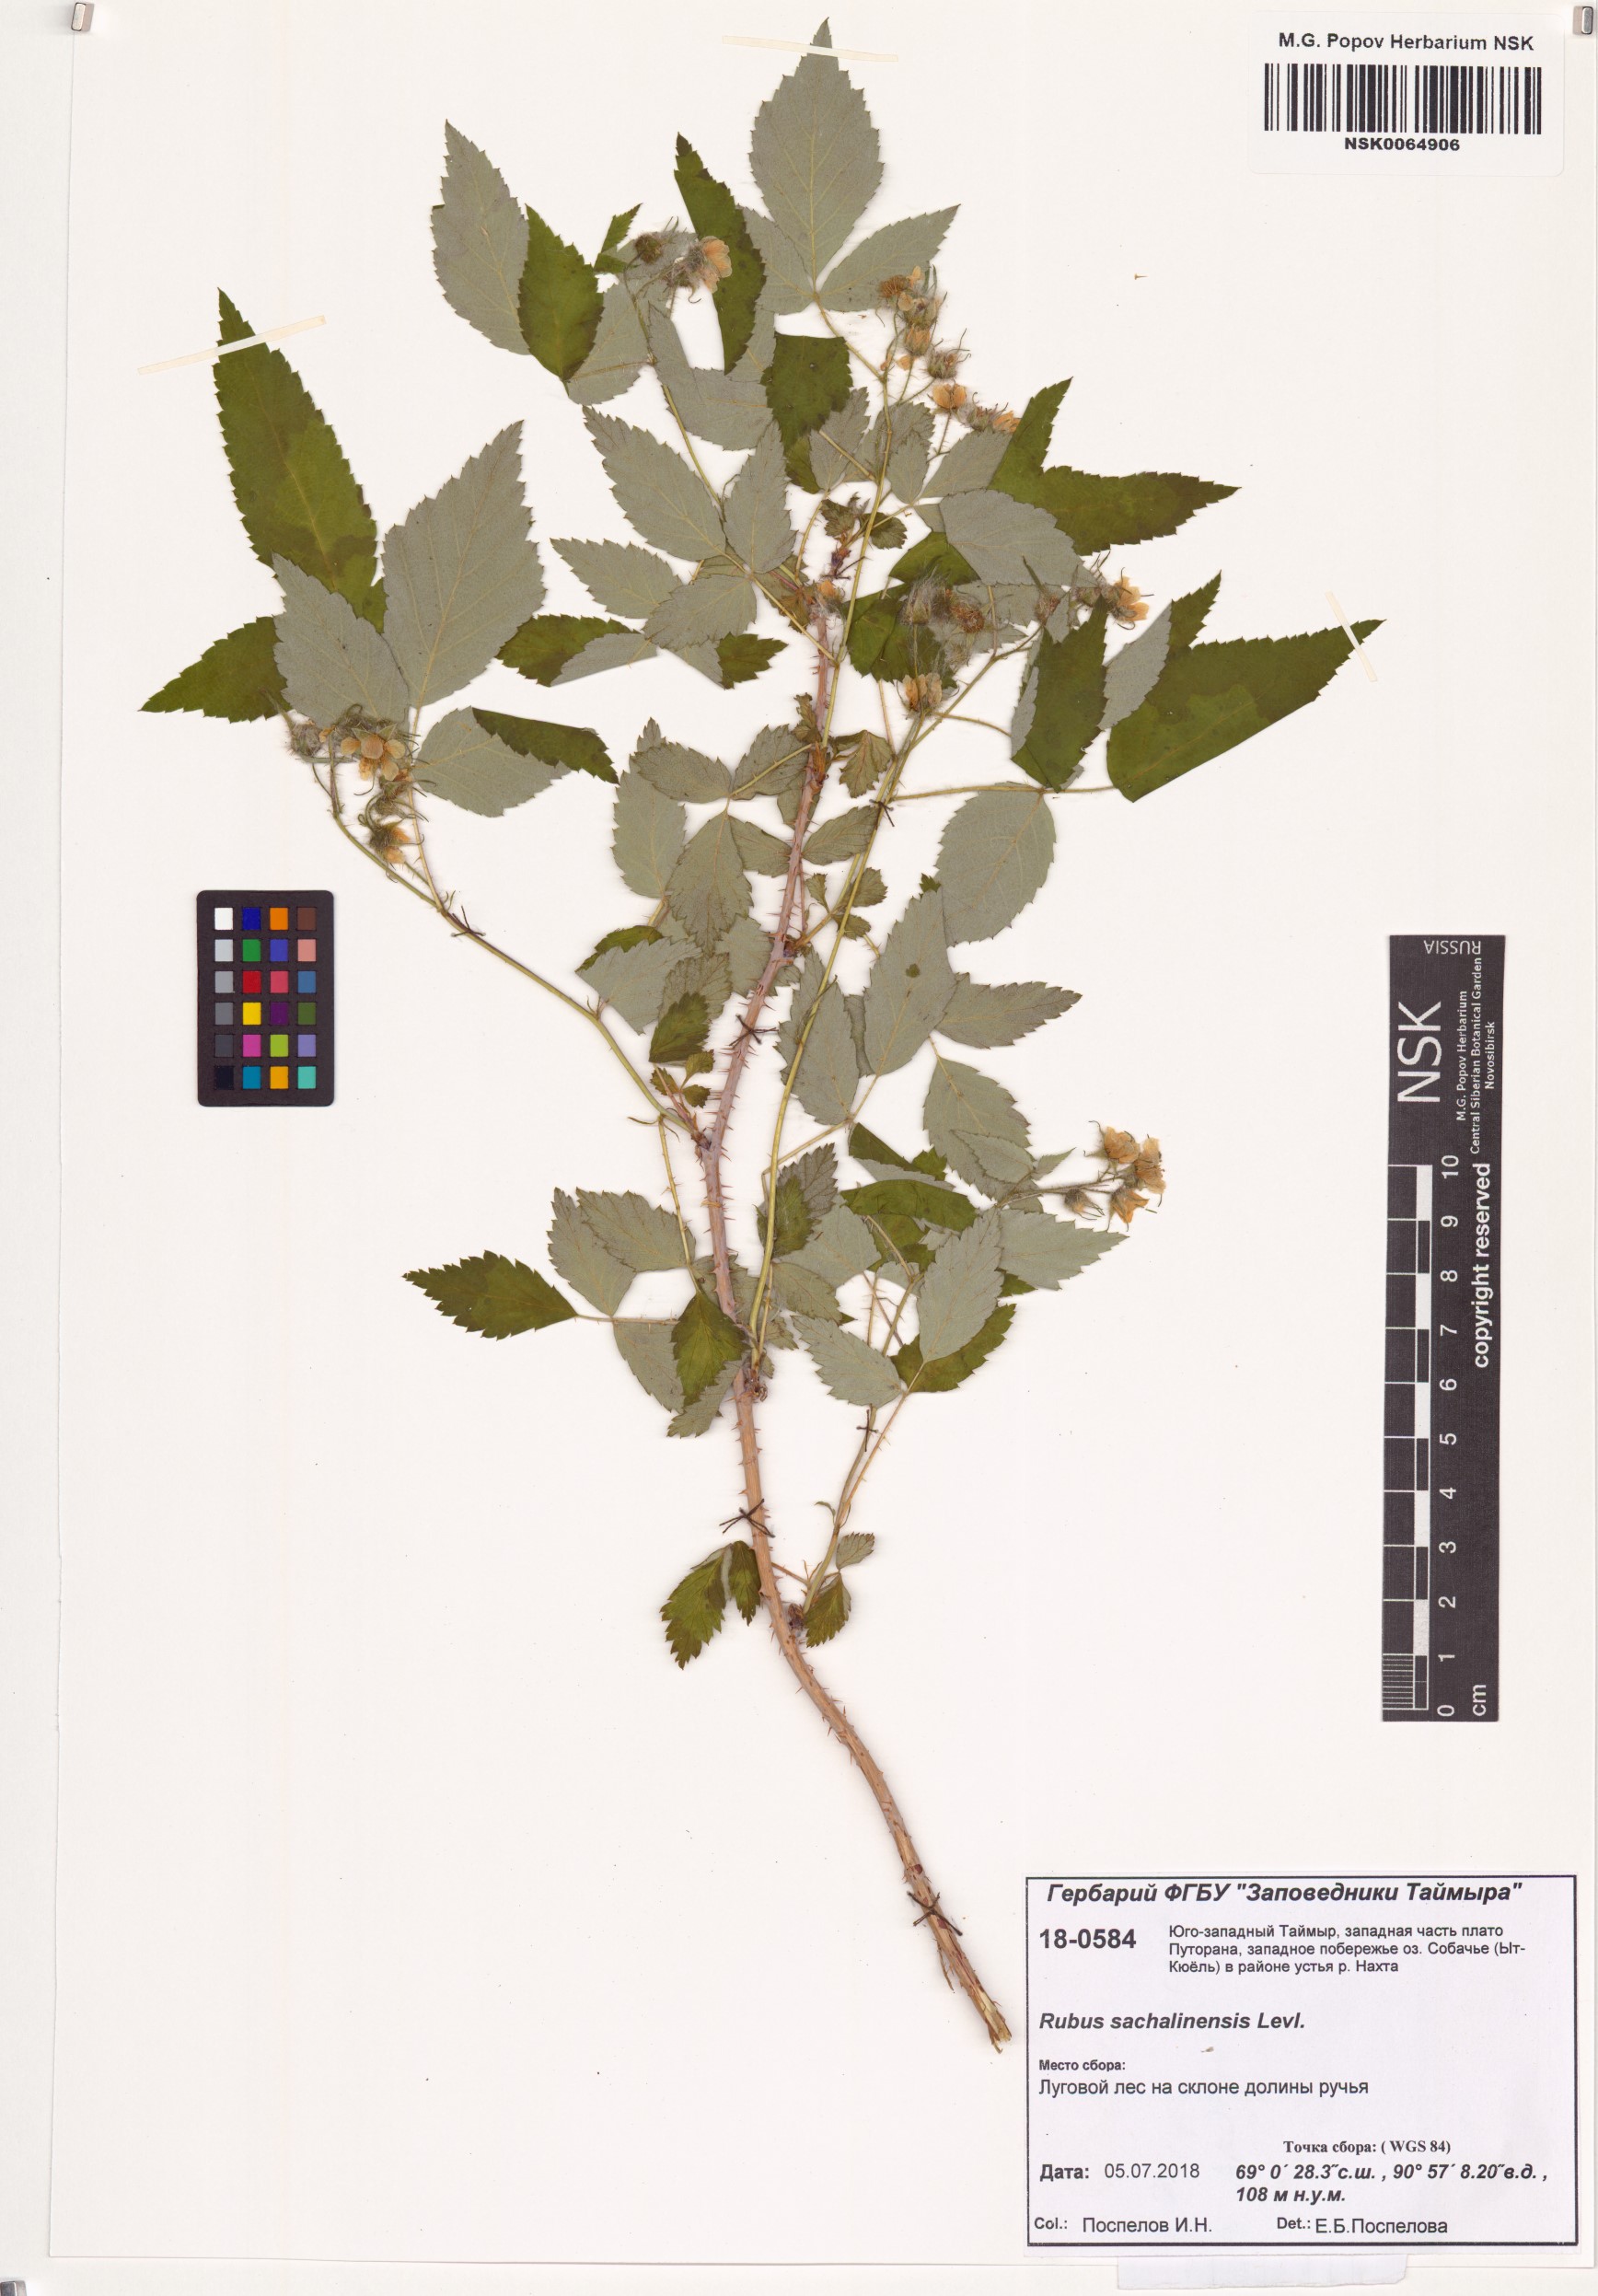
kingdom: Plantae
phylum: Tracheophyta
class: Magnoliopsida
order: Rosales
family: Rosaceae
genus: Rubus
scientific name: Rubus sachalinensis
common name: Red raspberry
